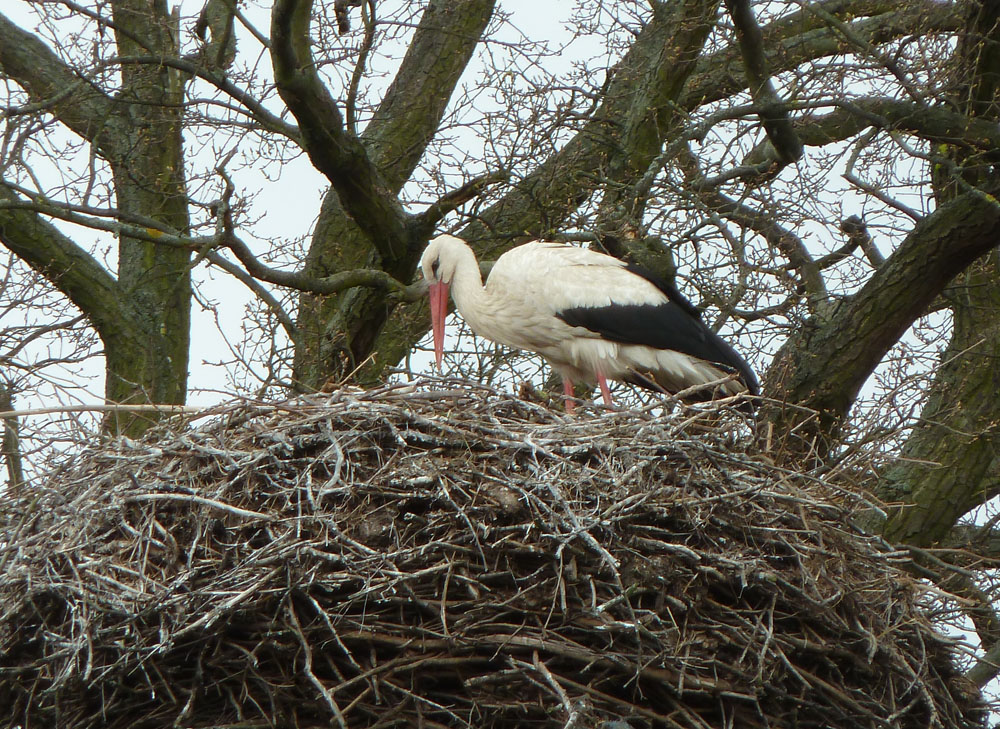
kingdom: Animalia
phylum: Chordata
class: Aves
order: Ciconiiformes
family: Ciconiidae
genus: Ciconia
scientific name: Ciconia ciconia
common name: White stork
